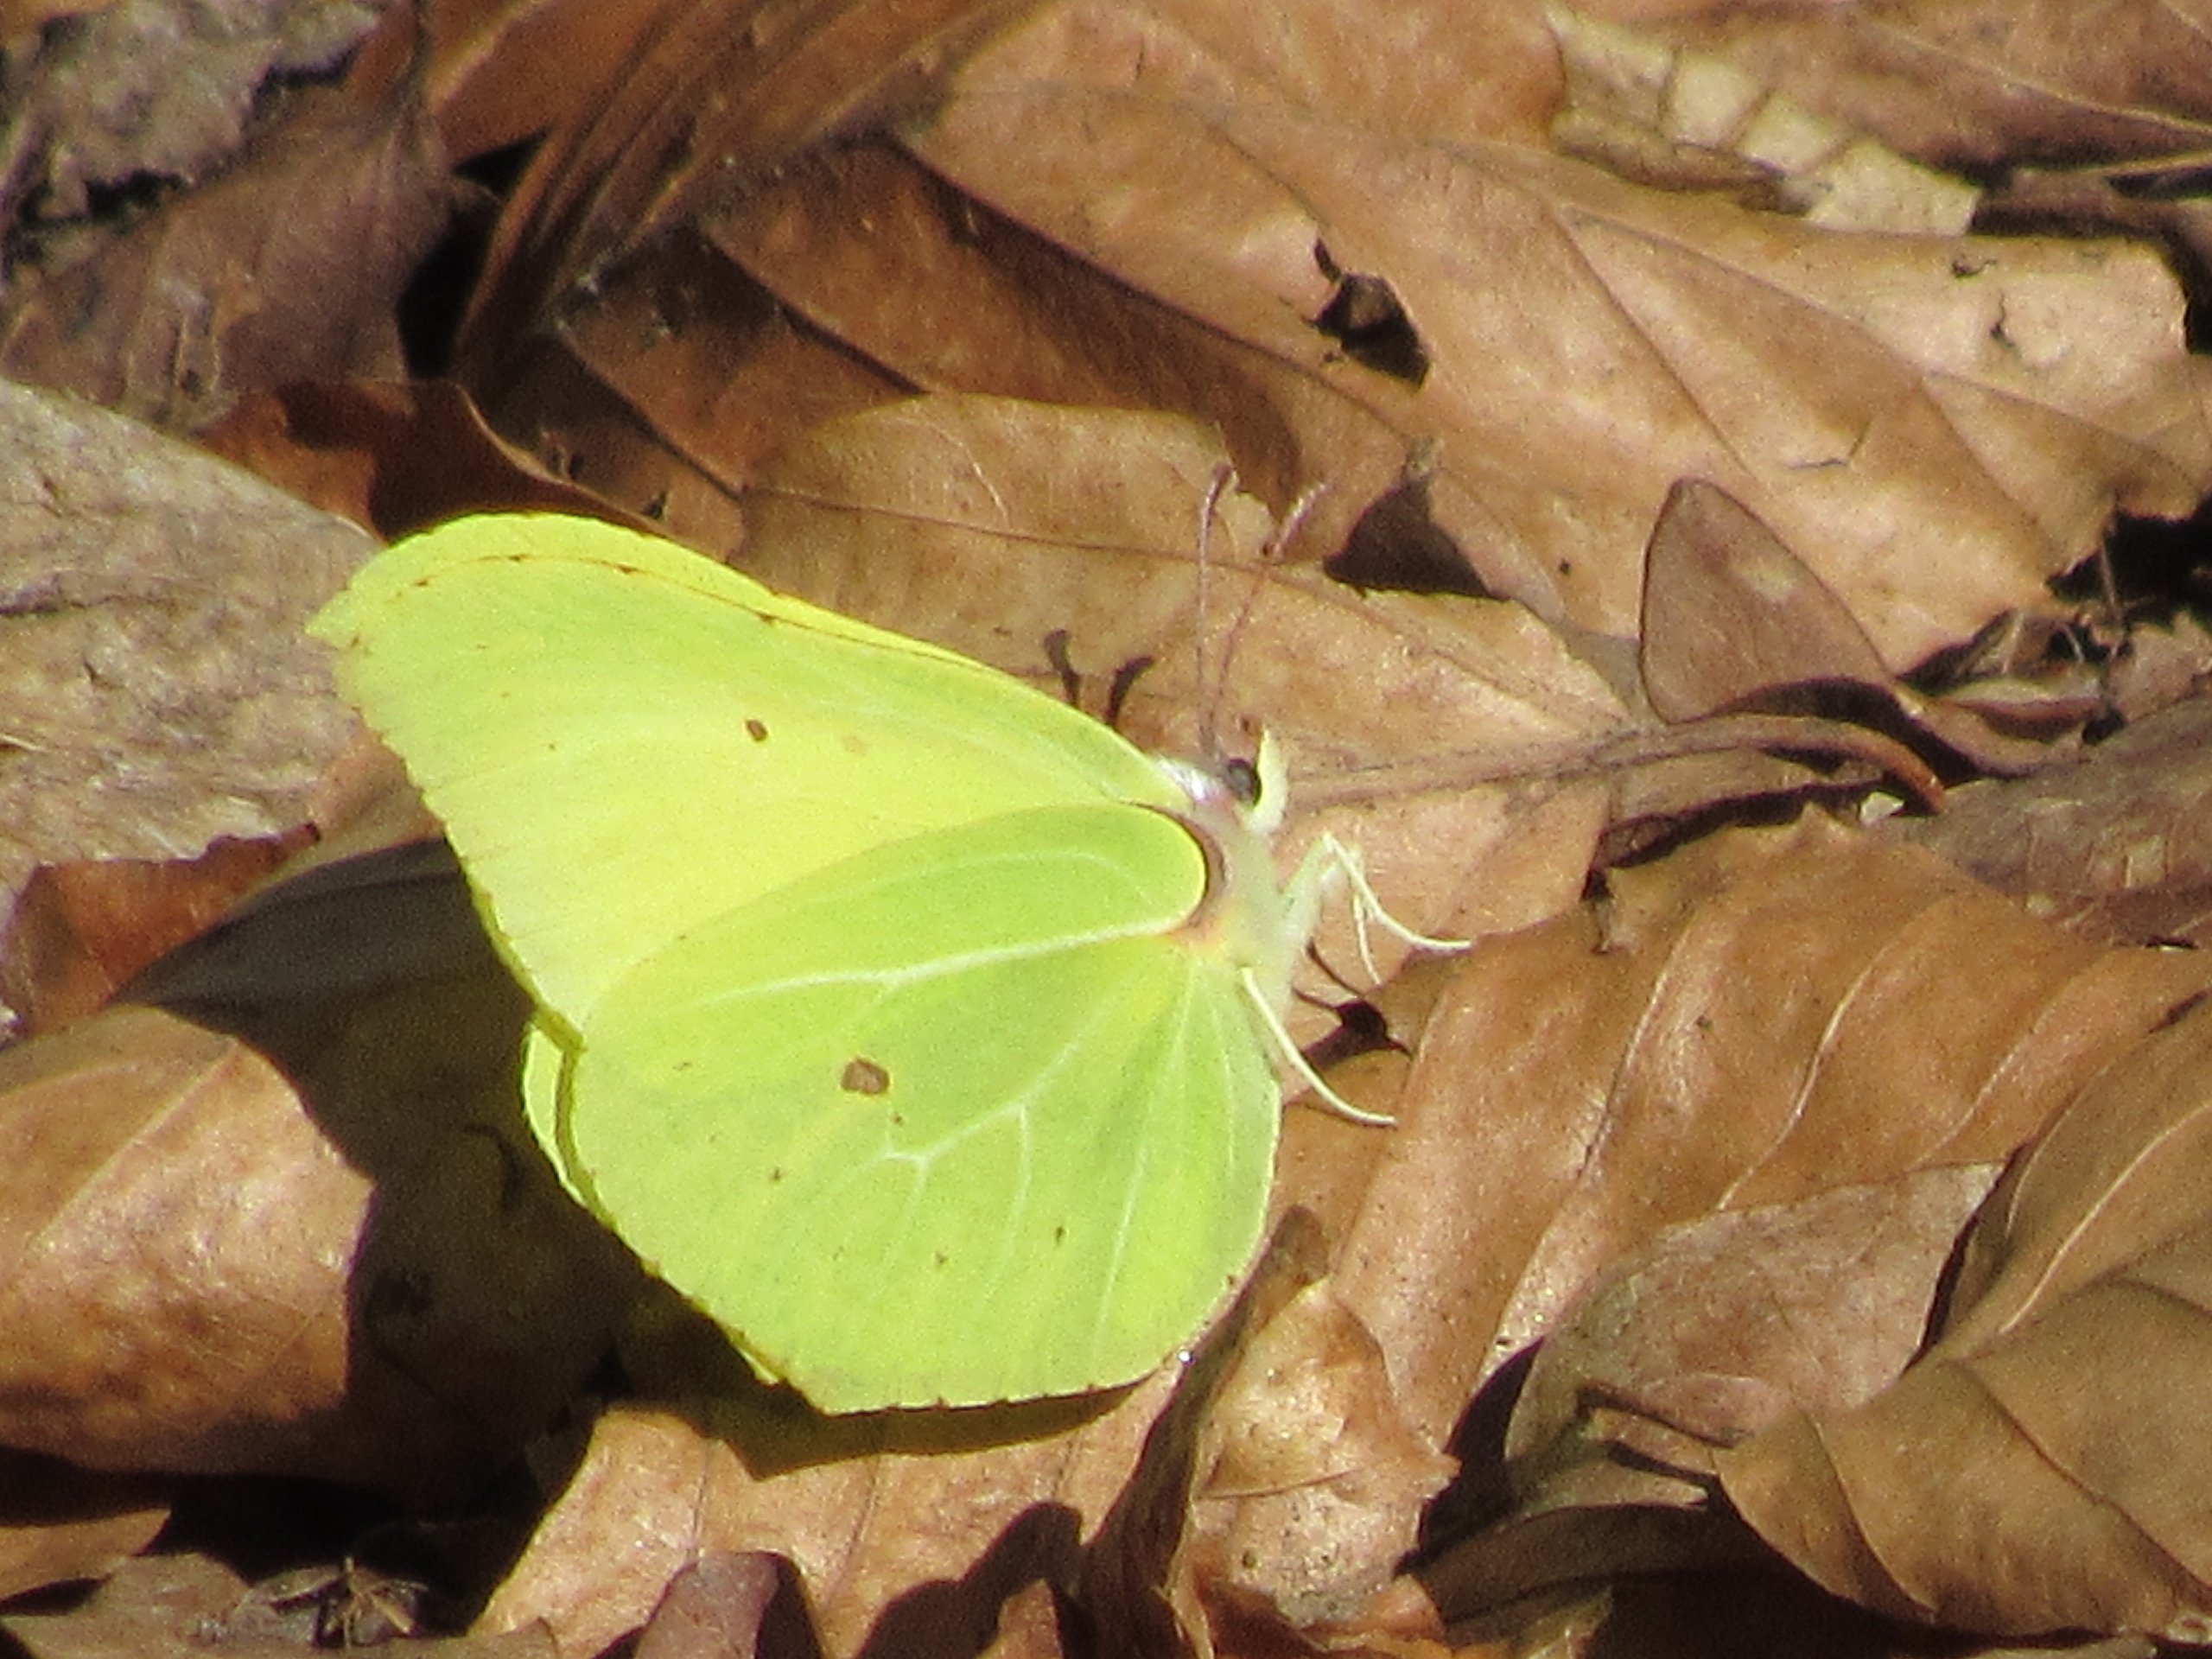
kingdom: Animalia
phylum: Arthropoda
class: Insecta
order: Lepidoptera
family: Pieridae
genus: Gonepteryx
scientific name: Gonepteryx rhamni
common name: Citronsommerfugl
